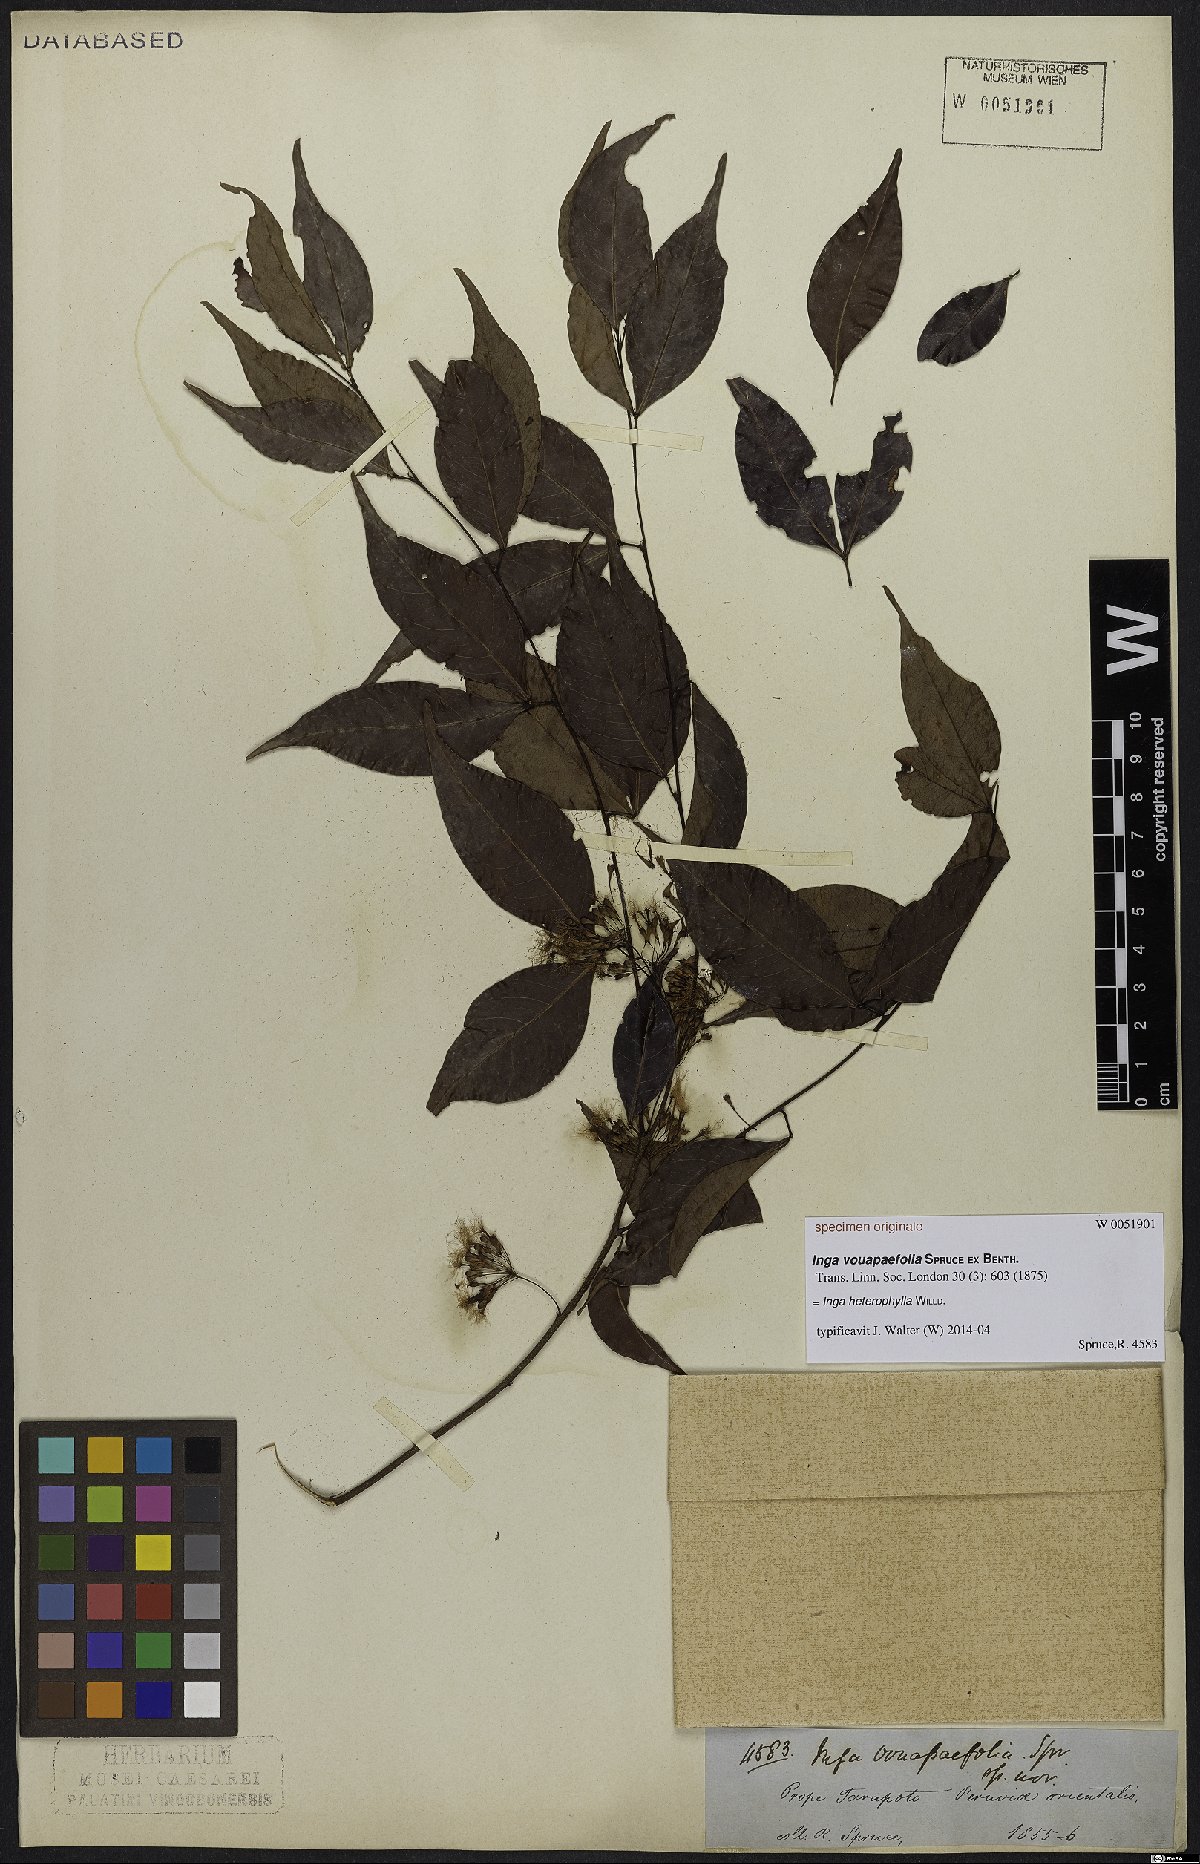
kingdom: Plantae
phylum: Tracheophyta
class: Magnoliopsida
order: Fabales
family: Fabaceae
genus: Inga
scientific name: Inga heterophylla
